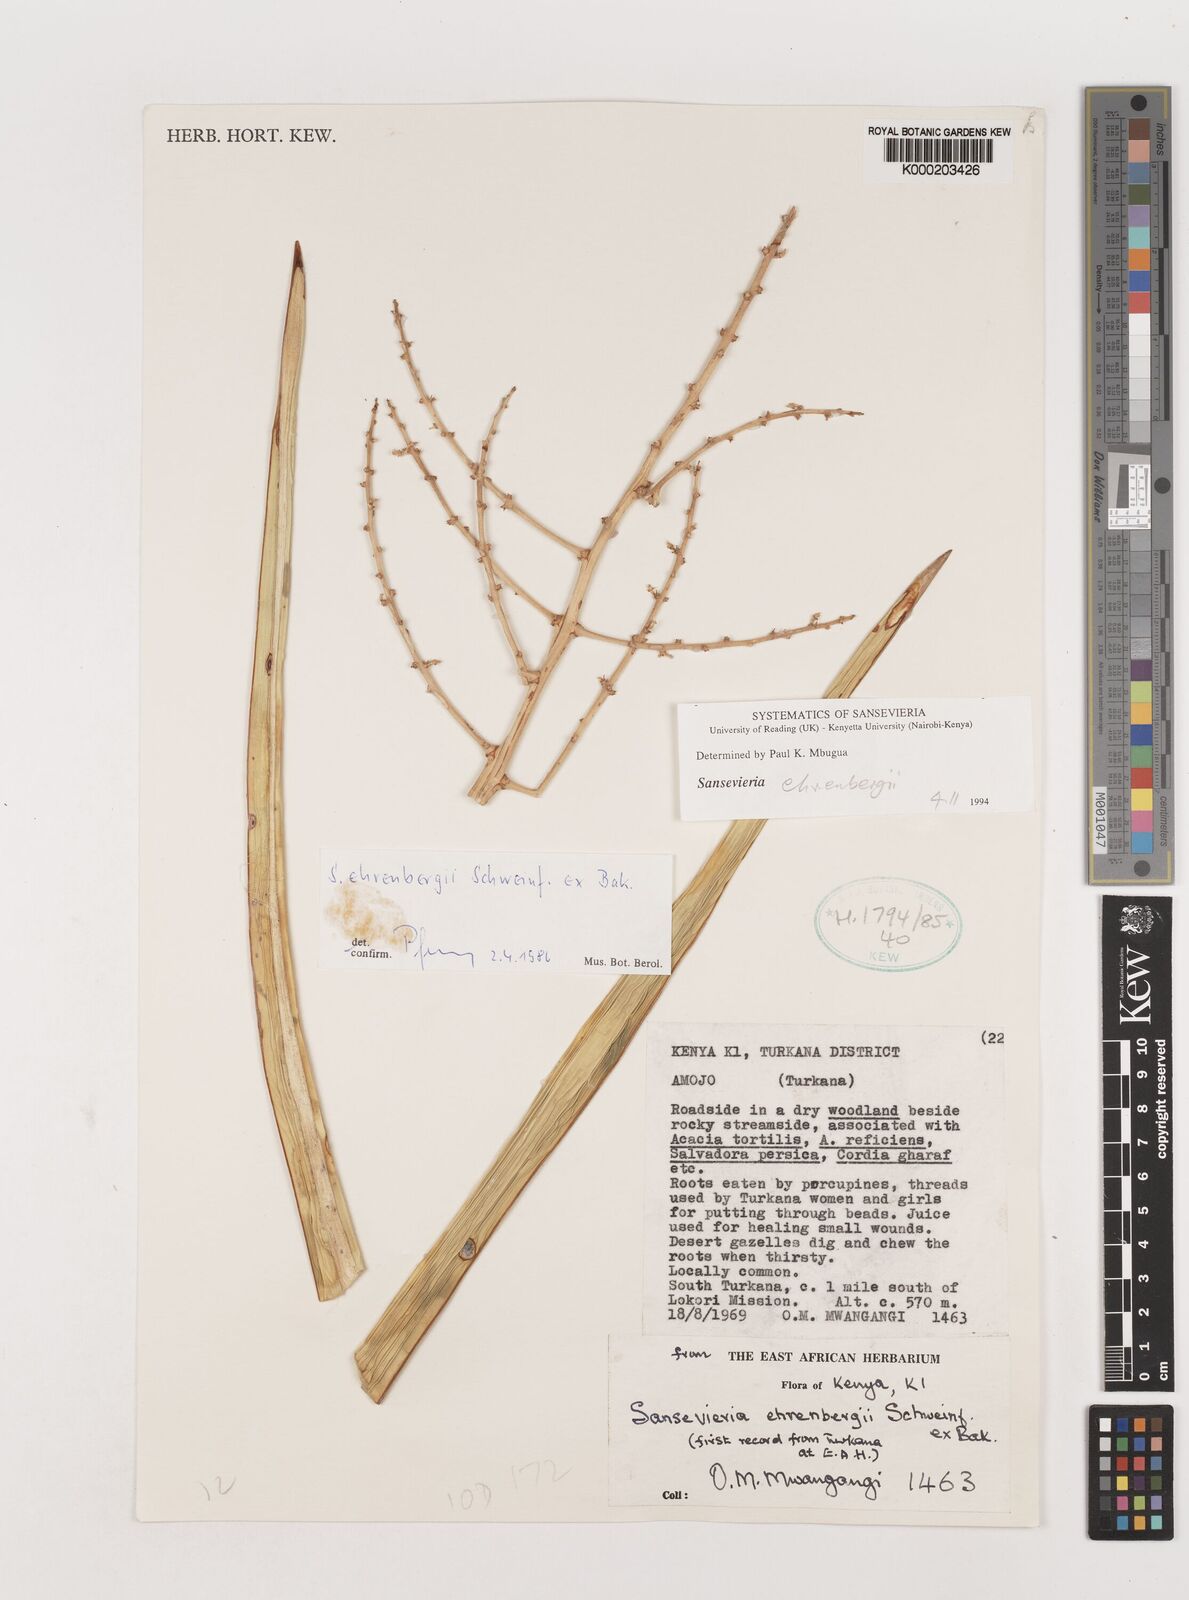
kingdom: Plantae
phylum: Tracheophyta
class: Liliopsida
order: Asparagales
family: Asparagaceae
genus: Dracaena
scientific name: Dracaena hanningtonii
